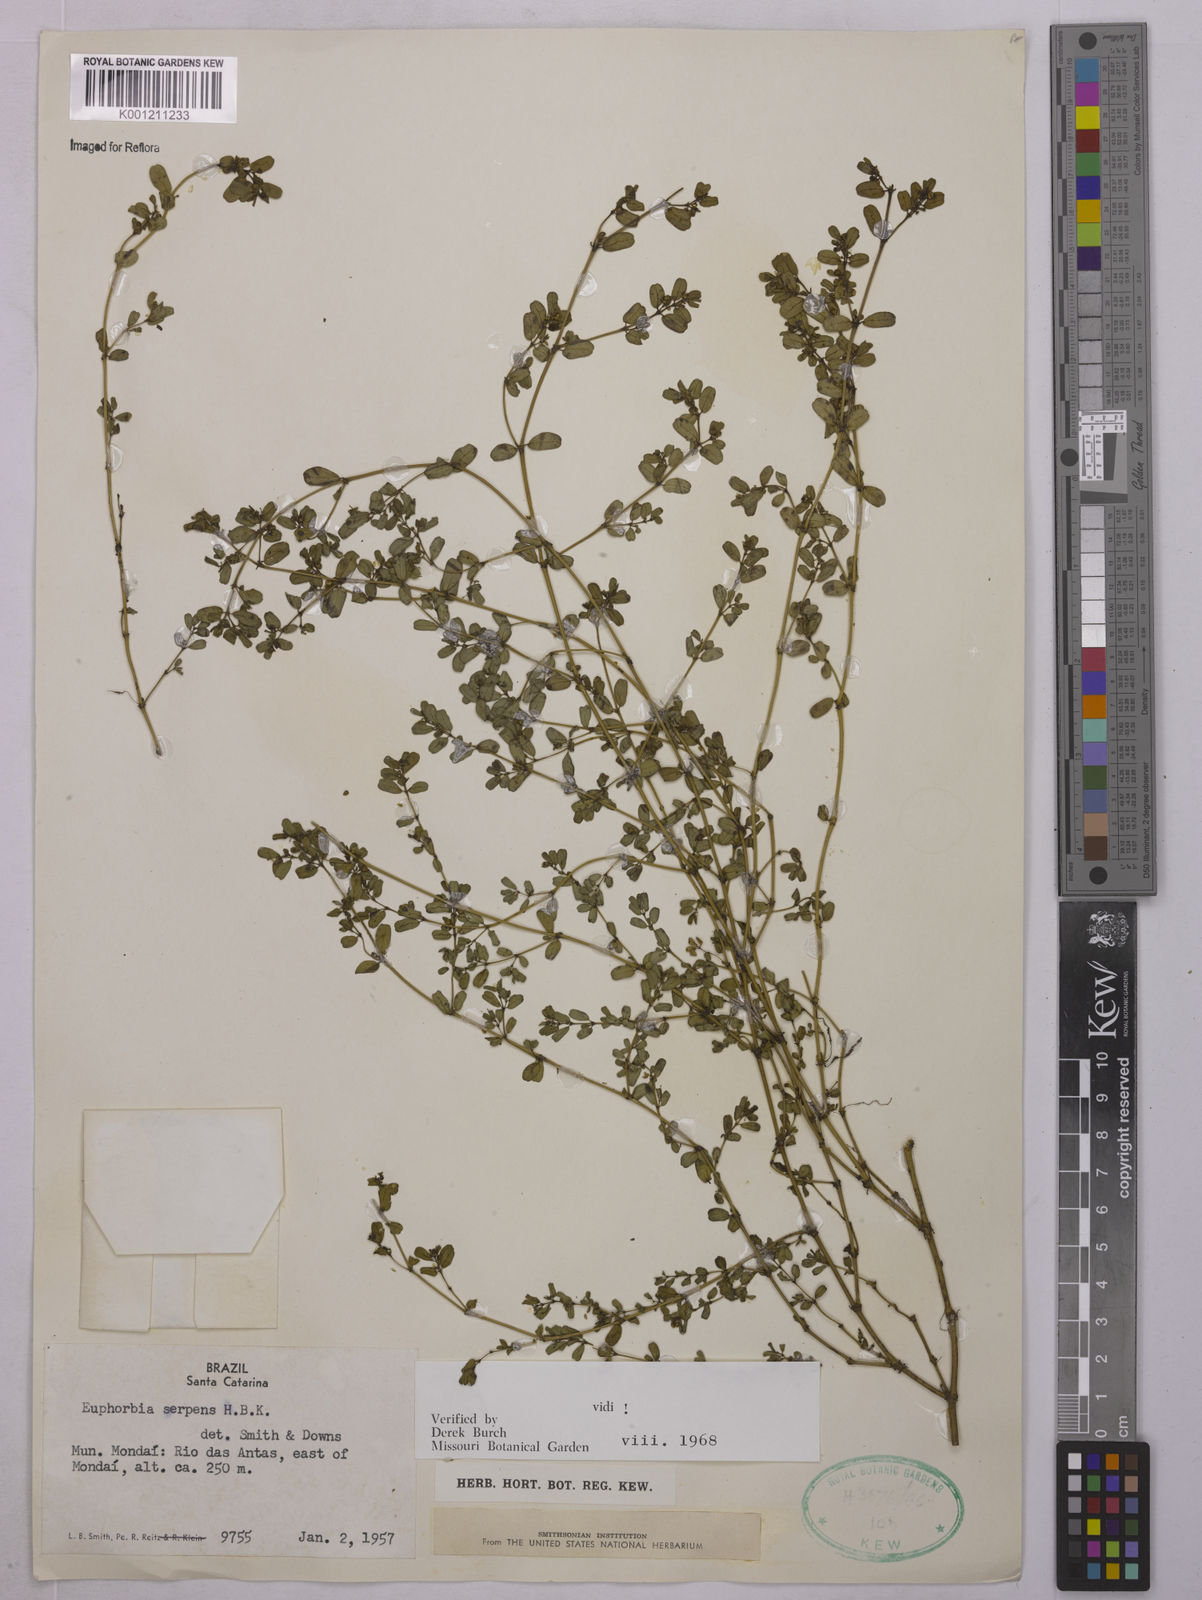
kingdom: Plantae
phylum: Tracheophyta
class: Magnoliopsida
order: Malpighiales
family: Euphorbiaceae
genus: Euphorbia
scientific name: Euphorbia serpens
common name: Matted sandmat
